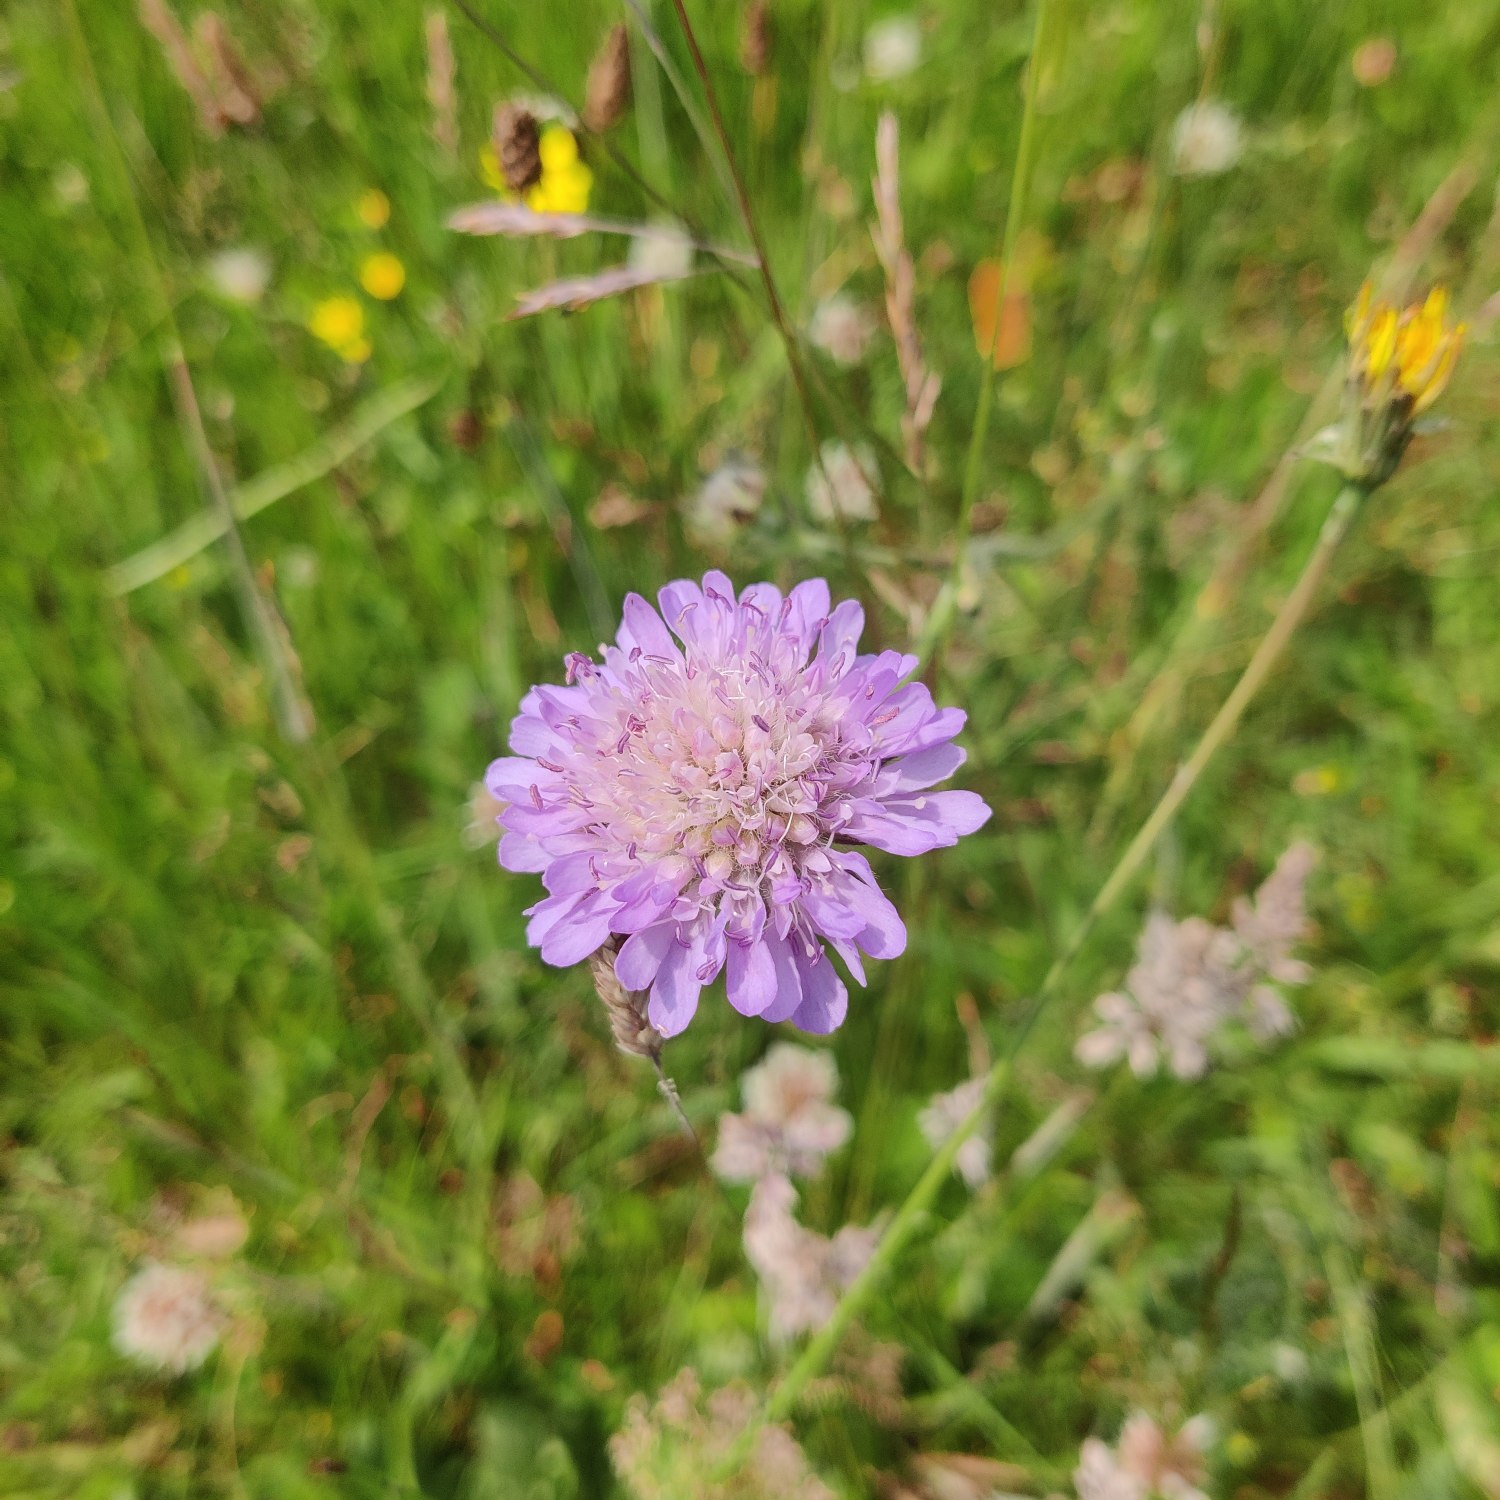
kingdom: Plantae
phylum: Tracheophyta
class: Magnoliopsida
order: Dipsacales
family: Caprifoliaceae
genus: Knautia
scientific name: Knautia arvensis
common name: Blåhat
